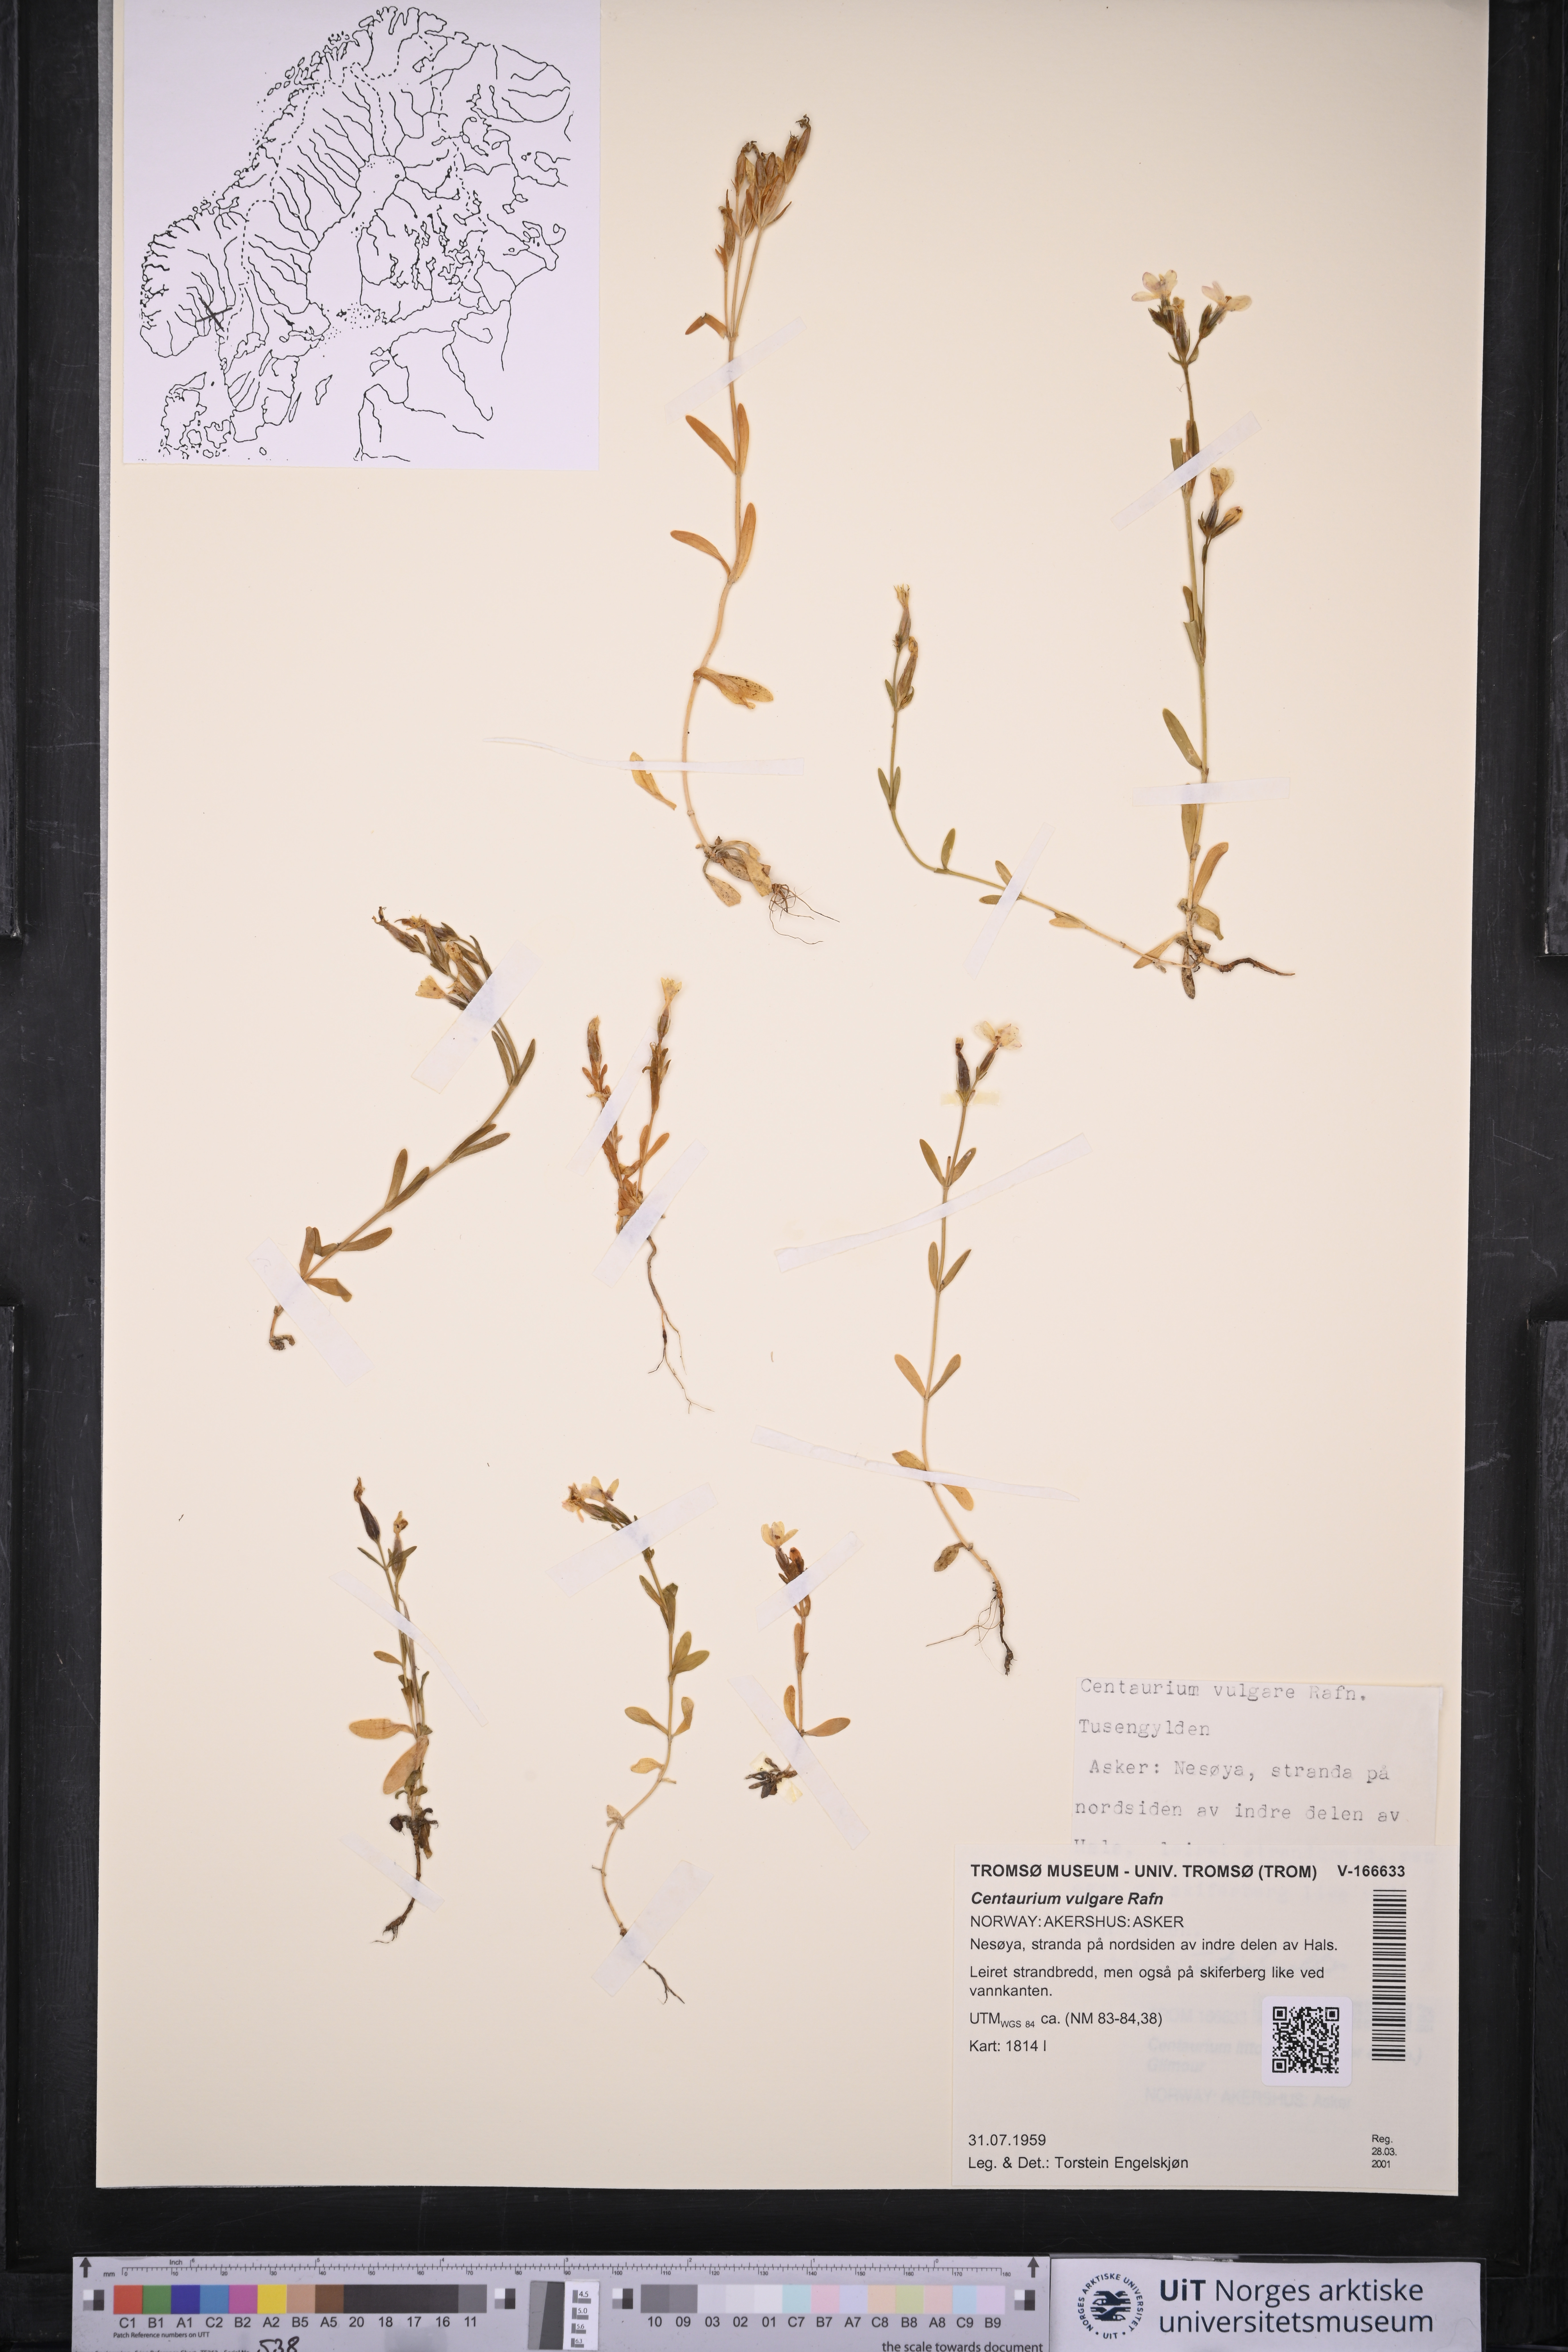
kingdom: Plantae
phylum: Tracheophyta
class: Magnoliopsida
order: Gentianales
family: Gentianaceae
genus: Centaurium
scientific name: Centaurium littorale
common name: Seaside centaury
